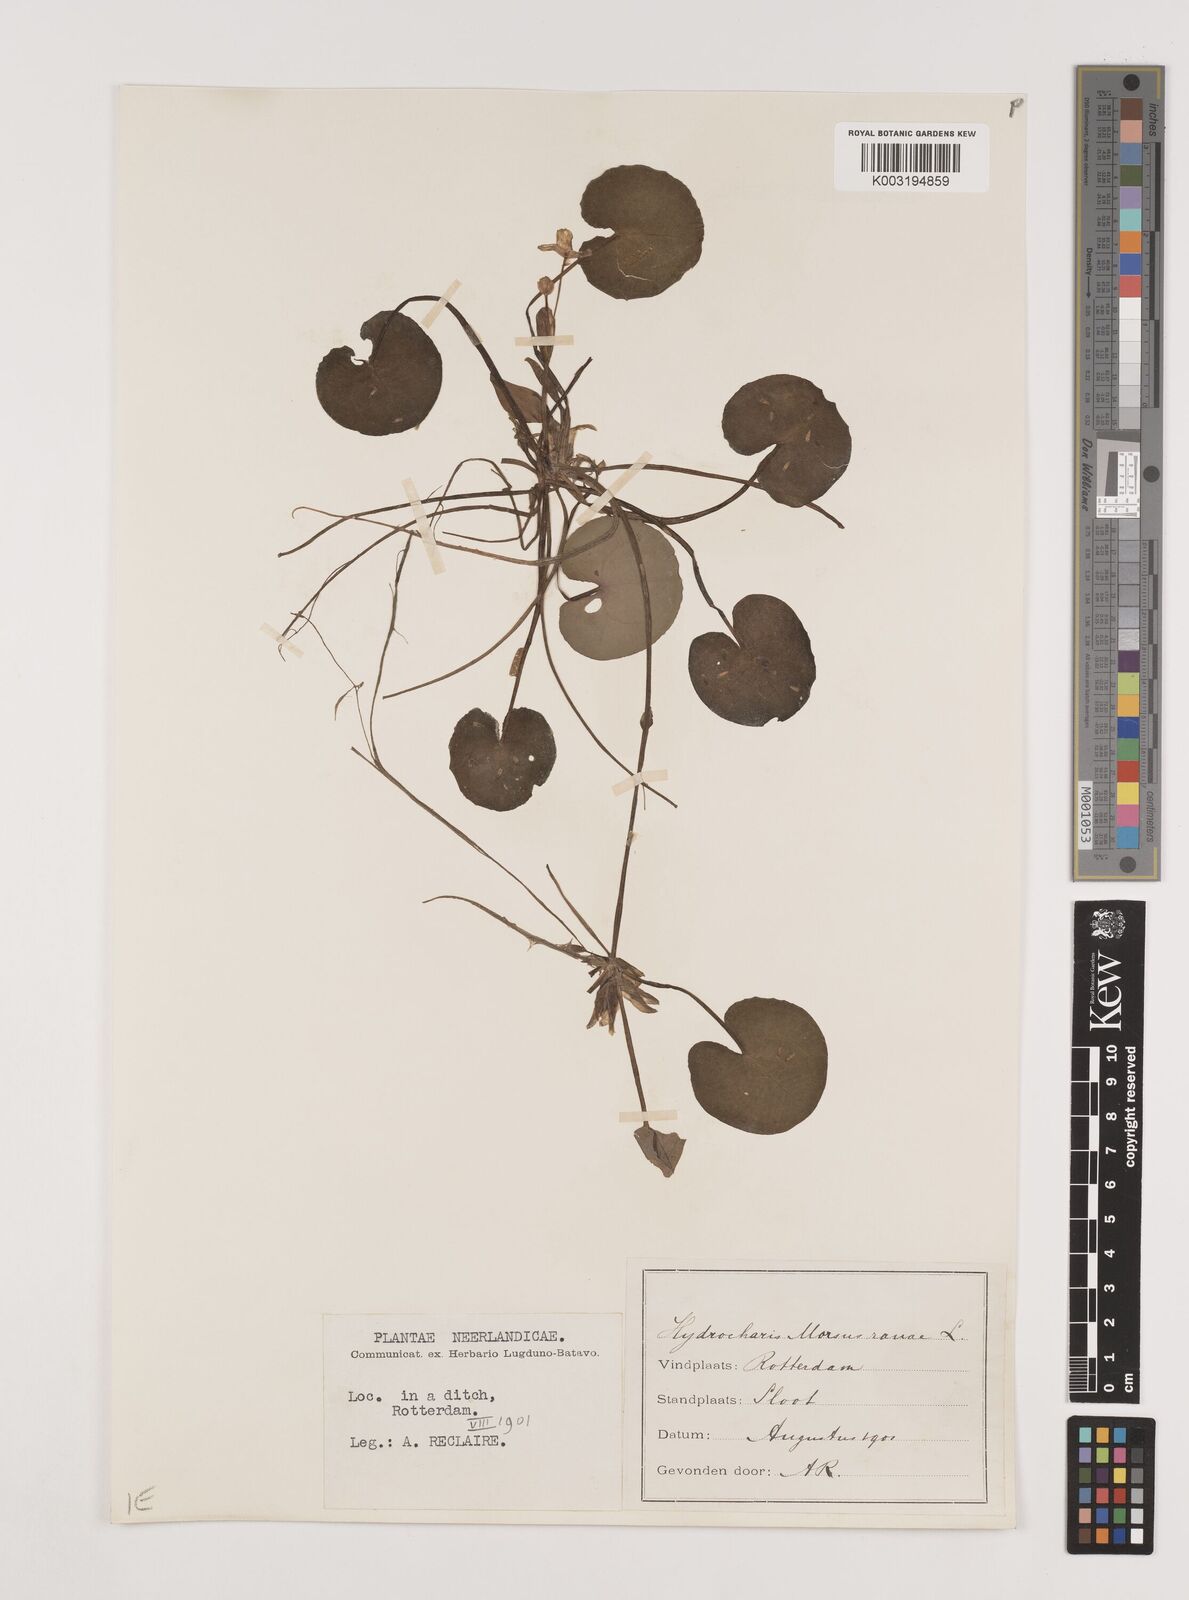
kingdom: Plantae
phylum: Tracheophyta
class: Liliopsida
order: Alismatales
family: Hydrocharitaceae
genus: Hydrocharis
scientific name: Hydrocharis morsus-ranae
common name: Frogbit
